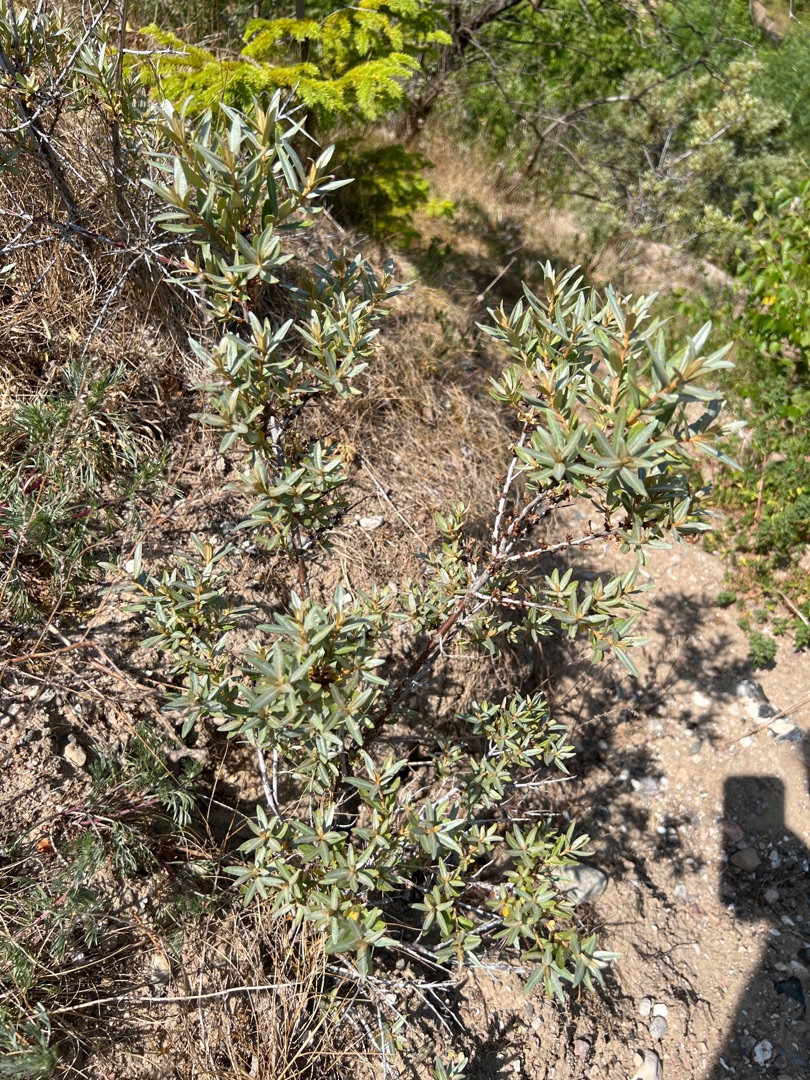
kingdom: Plantae
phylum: Tracheophyta
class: Magnoliopsida
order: Rosales
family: Elaeagnaceae
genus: Hippophae
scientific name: Hippophae rhamnoides
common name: Havtorn
